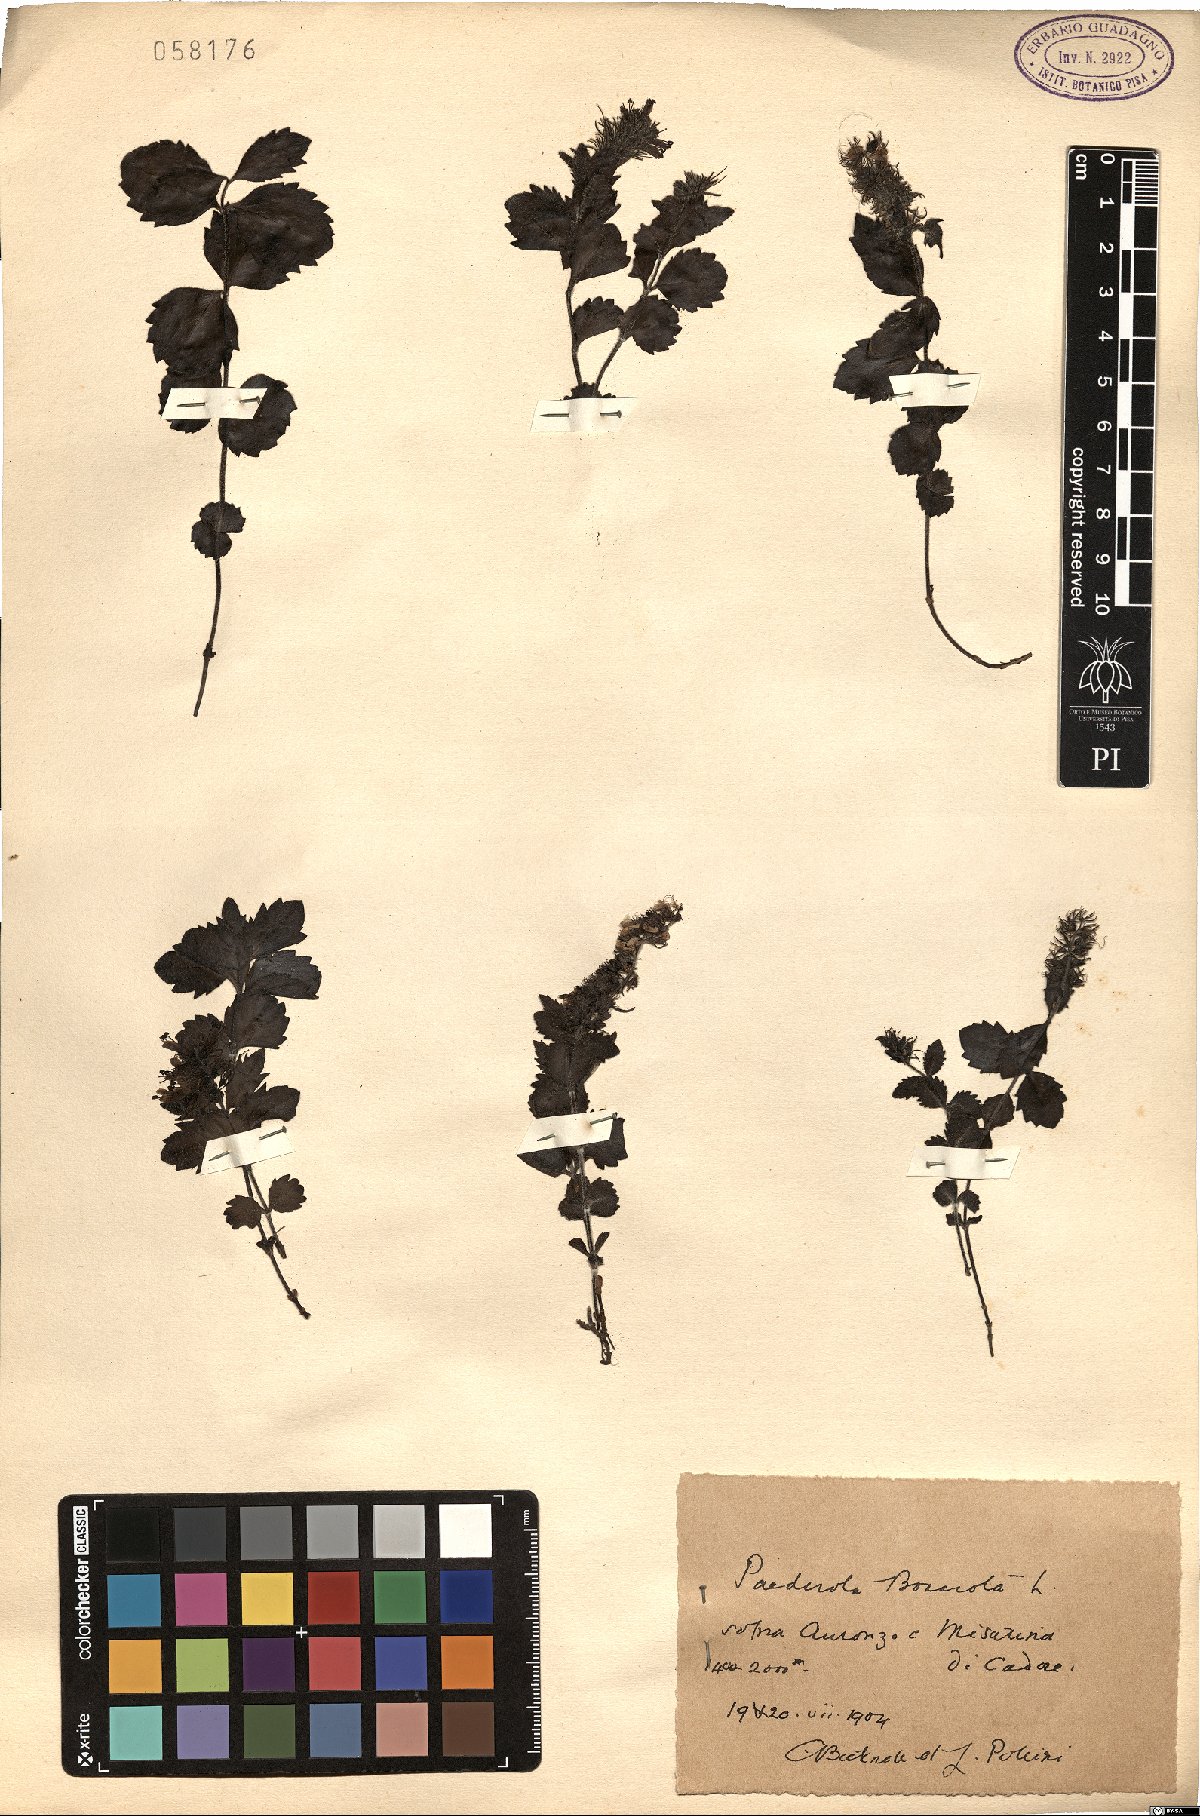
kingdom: Plantae
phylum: Tracheophyta
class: Magnoliopsida
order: Lamiales
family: Plantaginaceae
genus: Paederota
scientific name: Paederota bonarota
